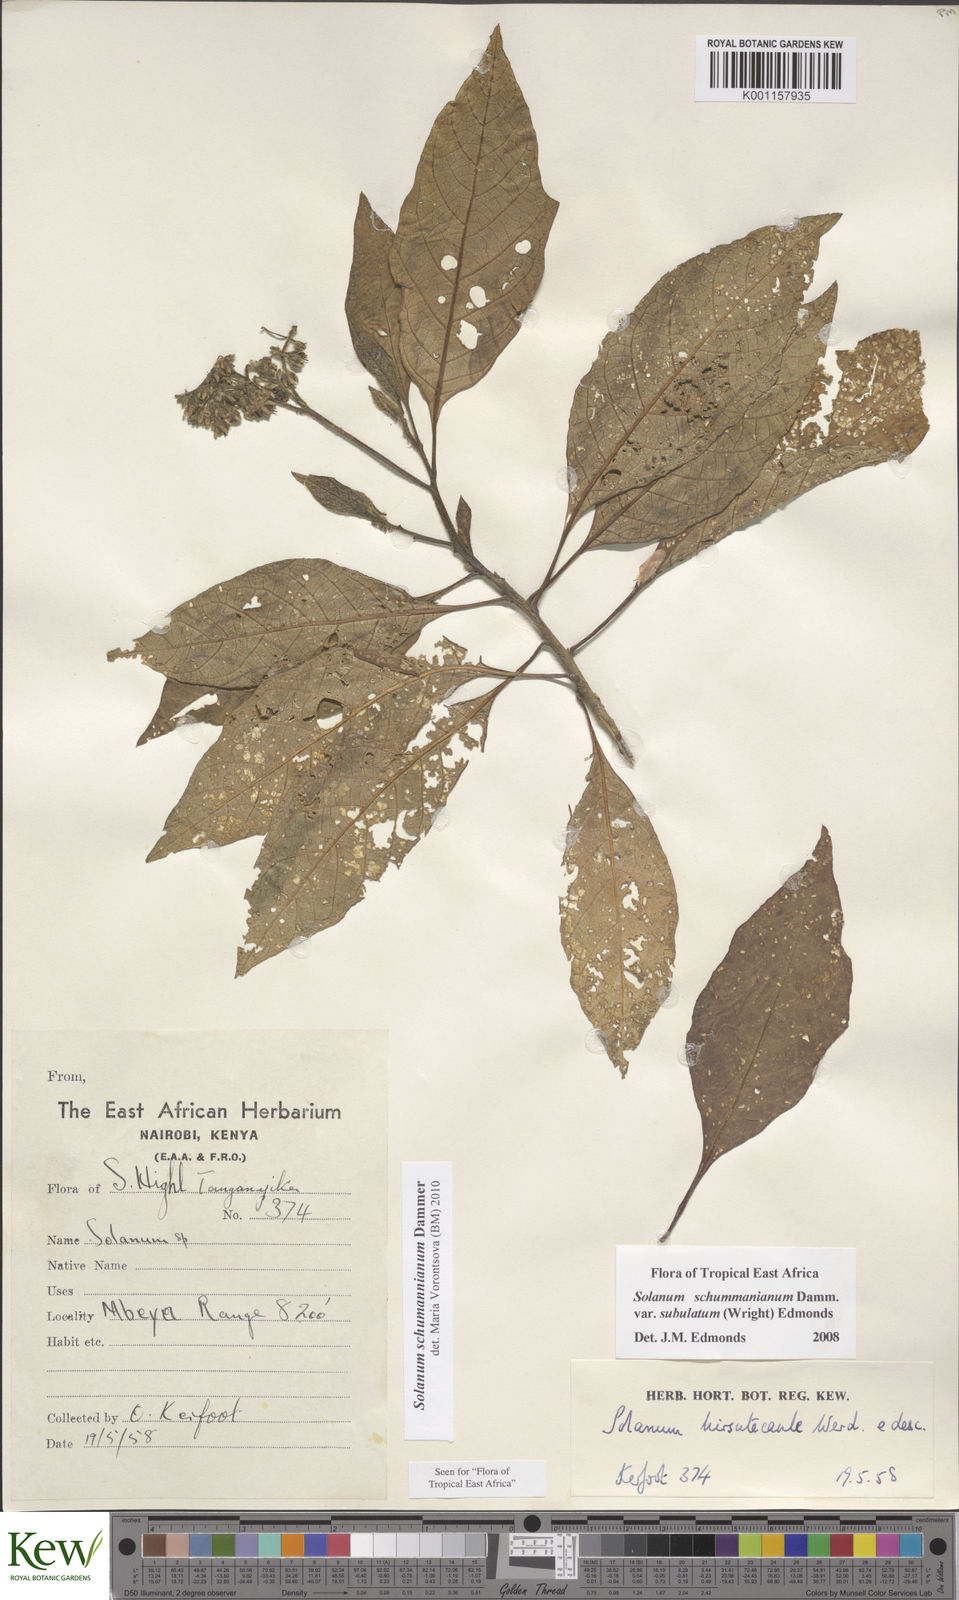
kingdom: Plantae
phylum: Tracheophyta
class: Magnoliopsida
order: Solanales
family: Solanaceae
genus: Solanum
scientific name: Solanum schumannianum
